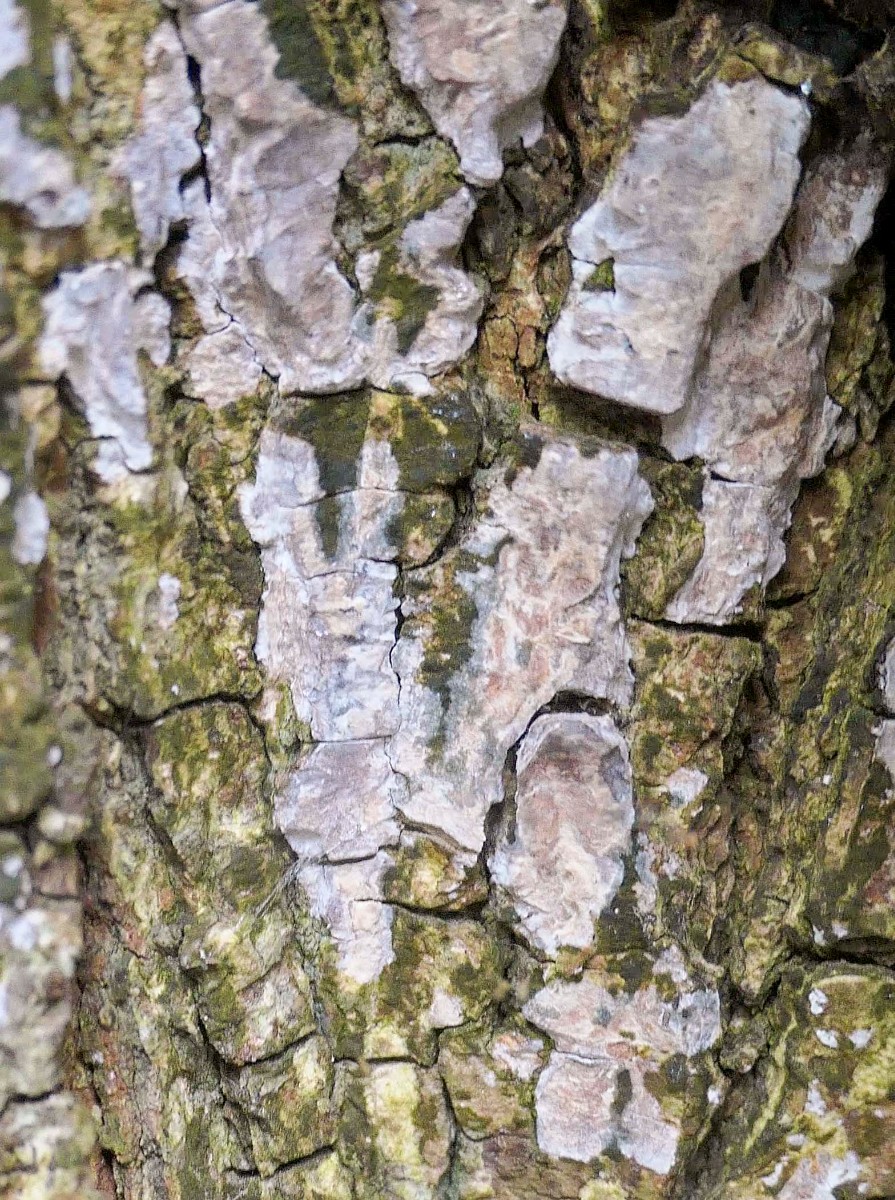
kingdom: Fungi
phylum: Basidiomycota
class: Agaricomycetes
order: Agaricales
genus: Dendrothele
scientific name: Dendrothele acerina
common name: navr-kalkplet
